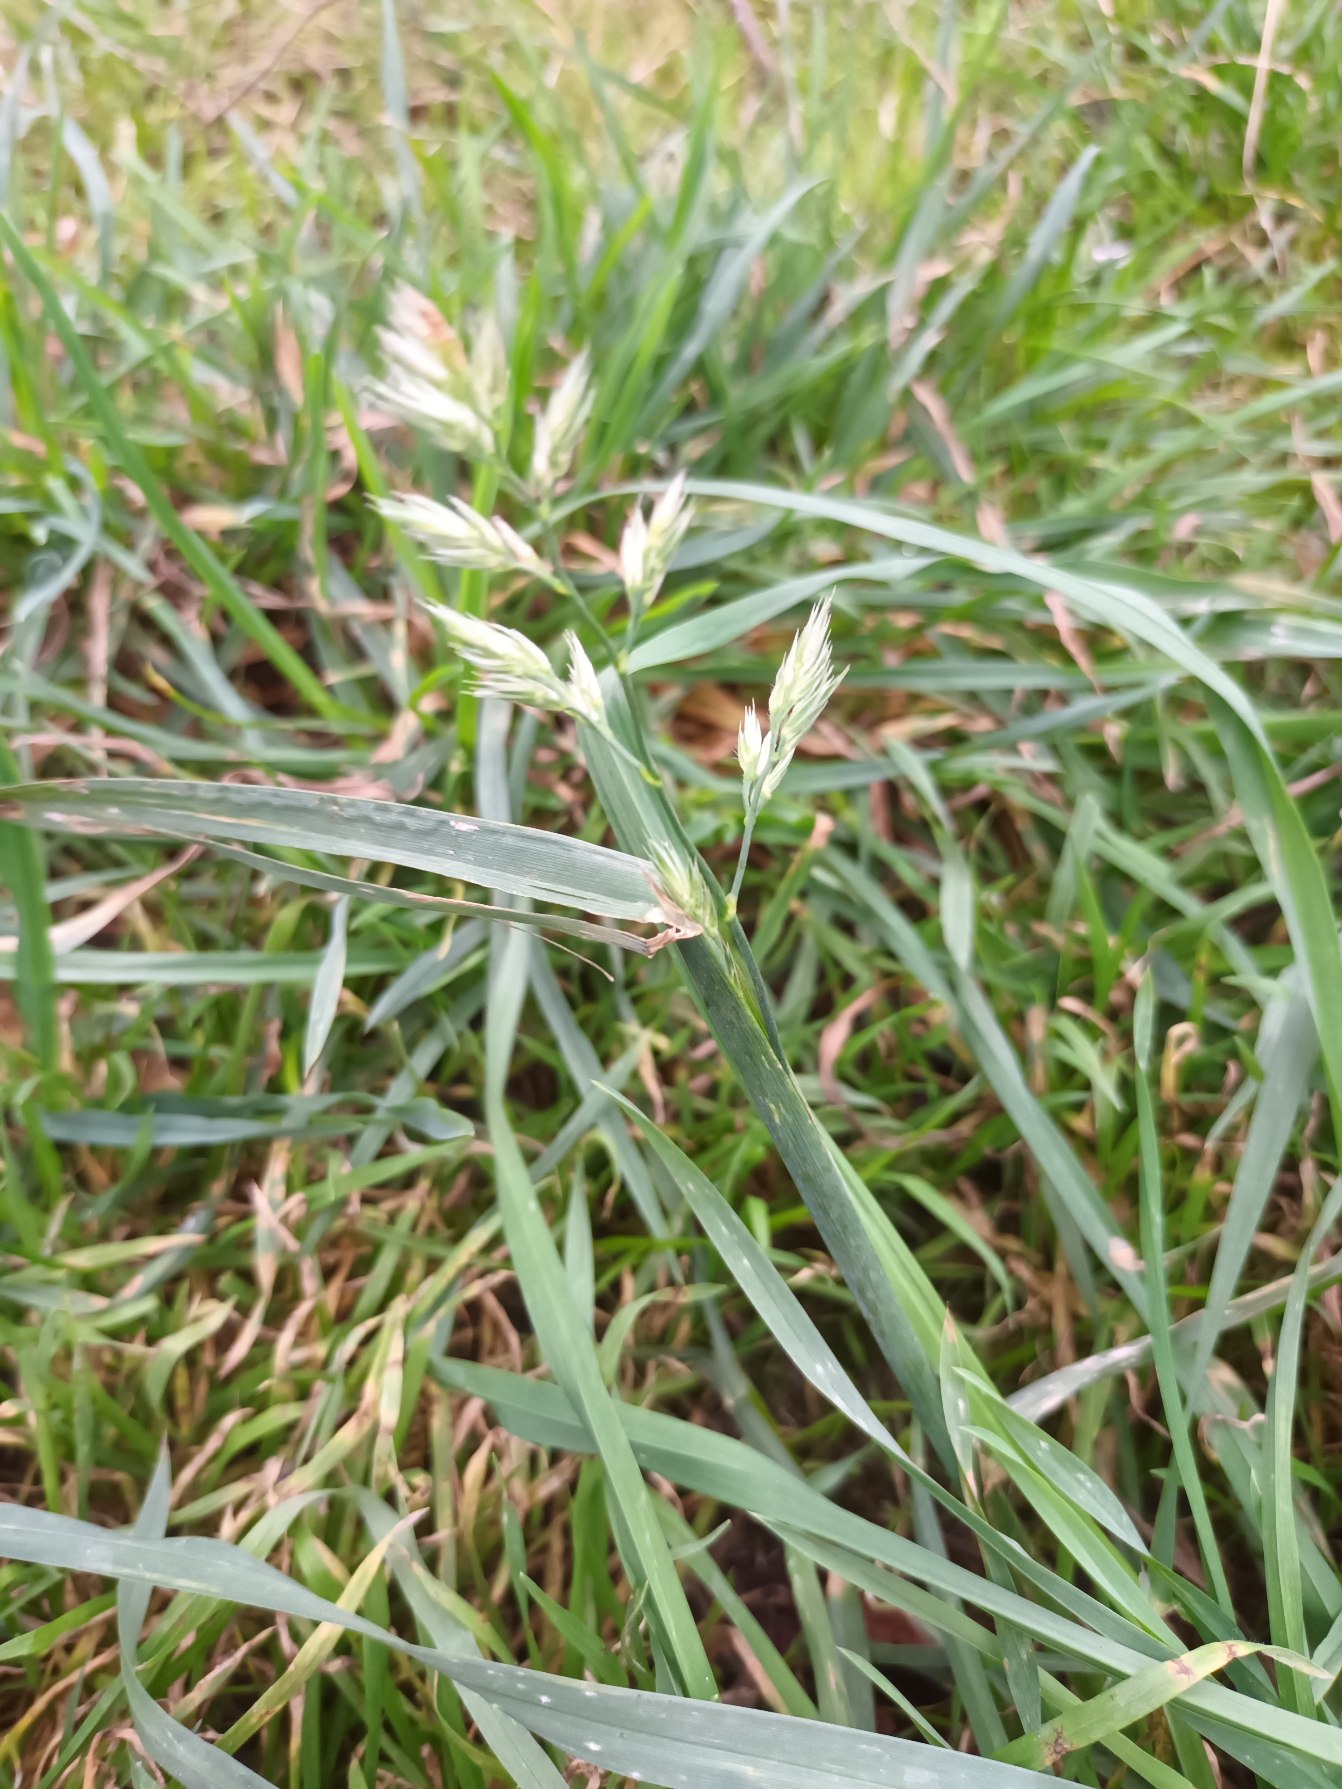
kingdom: Plantae
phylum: Tracheophyta
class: Liliopsida
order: Poales
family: Poaceae
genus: Dactylis
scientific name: Dactylis glomerata
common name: Almindelig hundegræs
